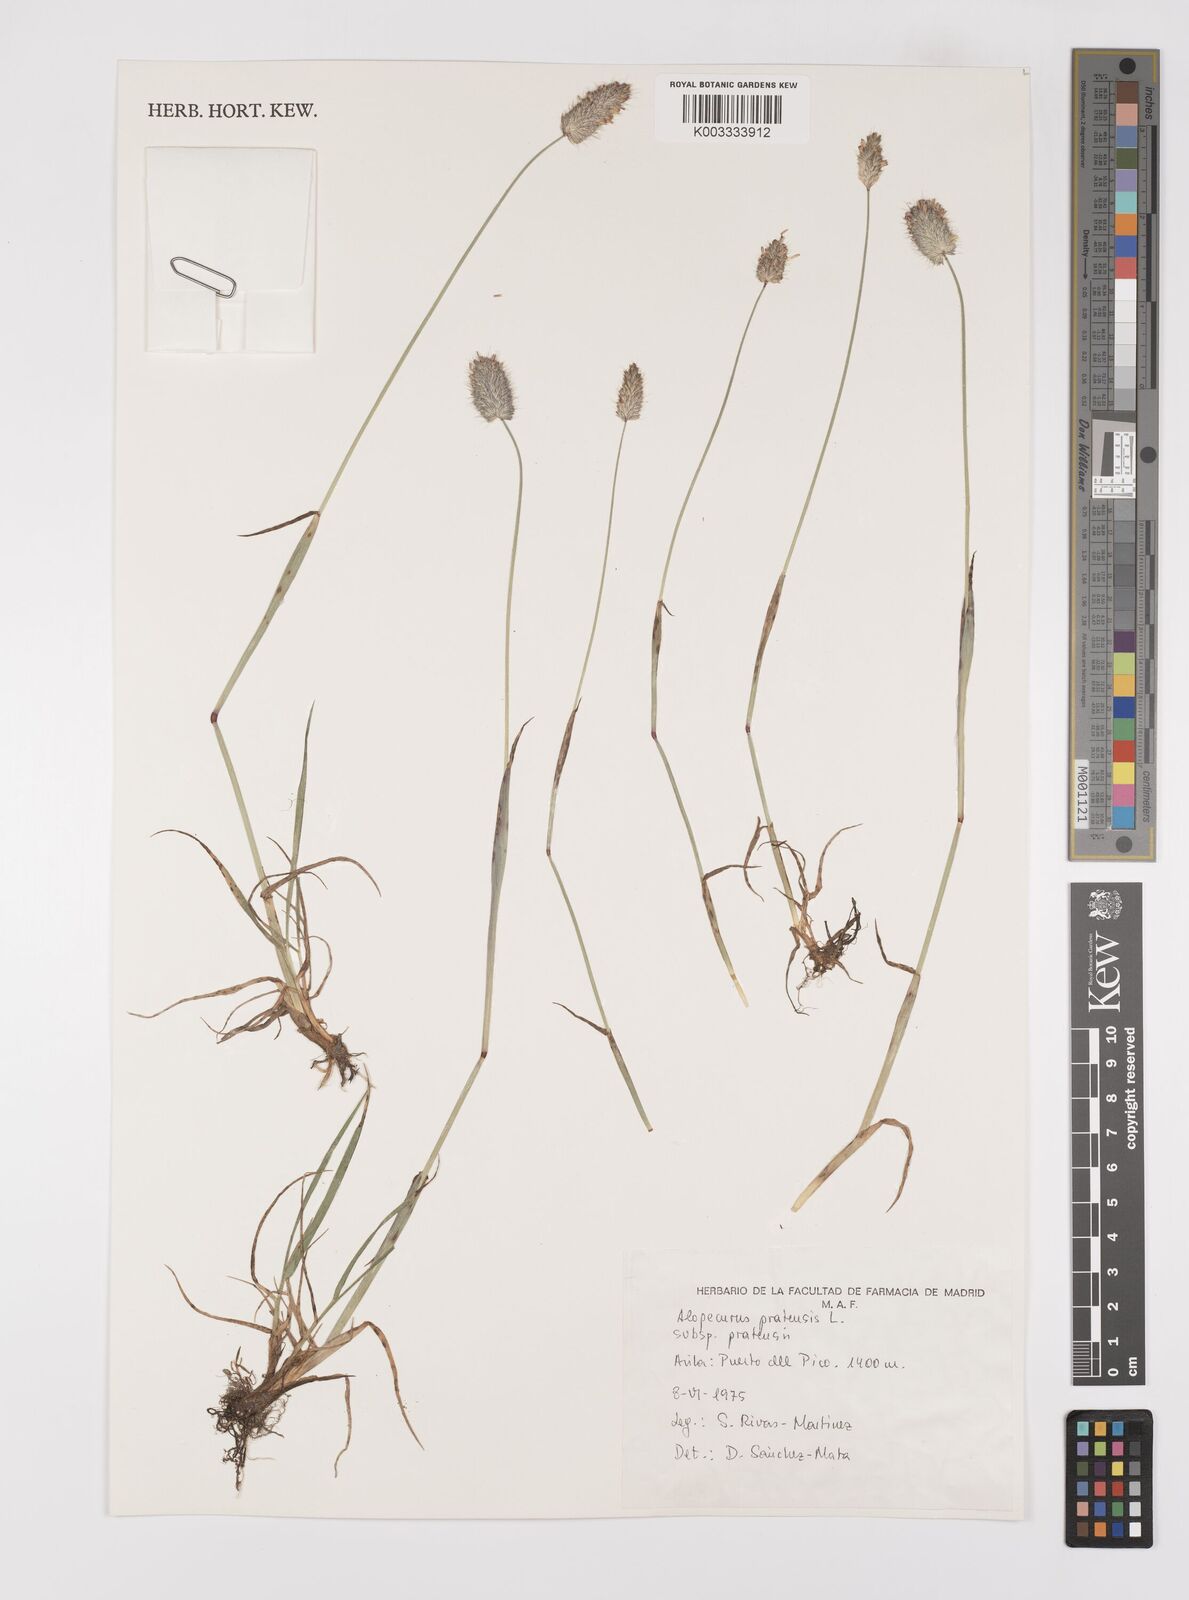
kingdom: Plantae
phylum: Tracheophyta
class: Liliopsida
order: Poales
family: Poaceae
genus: Alopecurus
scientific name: Alopecurus pratensis
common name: Meadow foxtail
